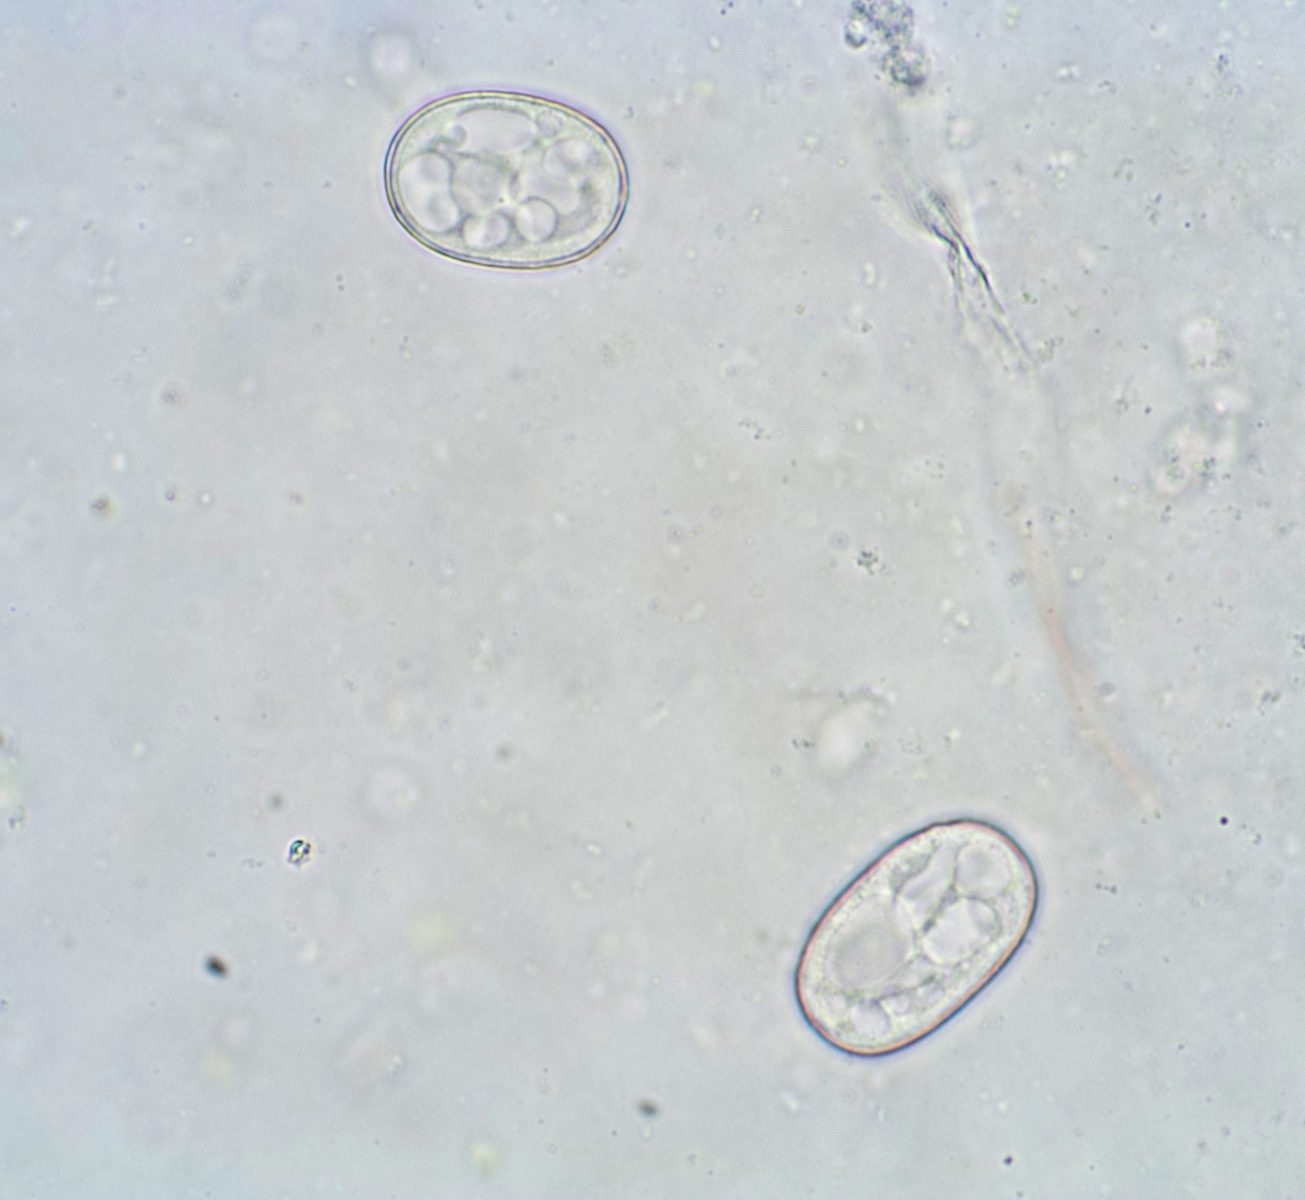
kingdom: Fungi
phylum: Ascomycota
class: Leotiomycetes
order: Helotiales
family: Erysiphaceae
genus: Neoerysiphe
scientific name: Neoerysiphe galii
